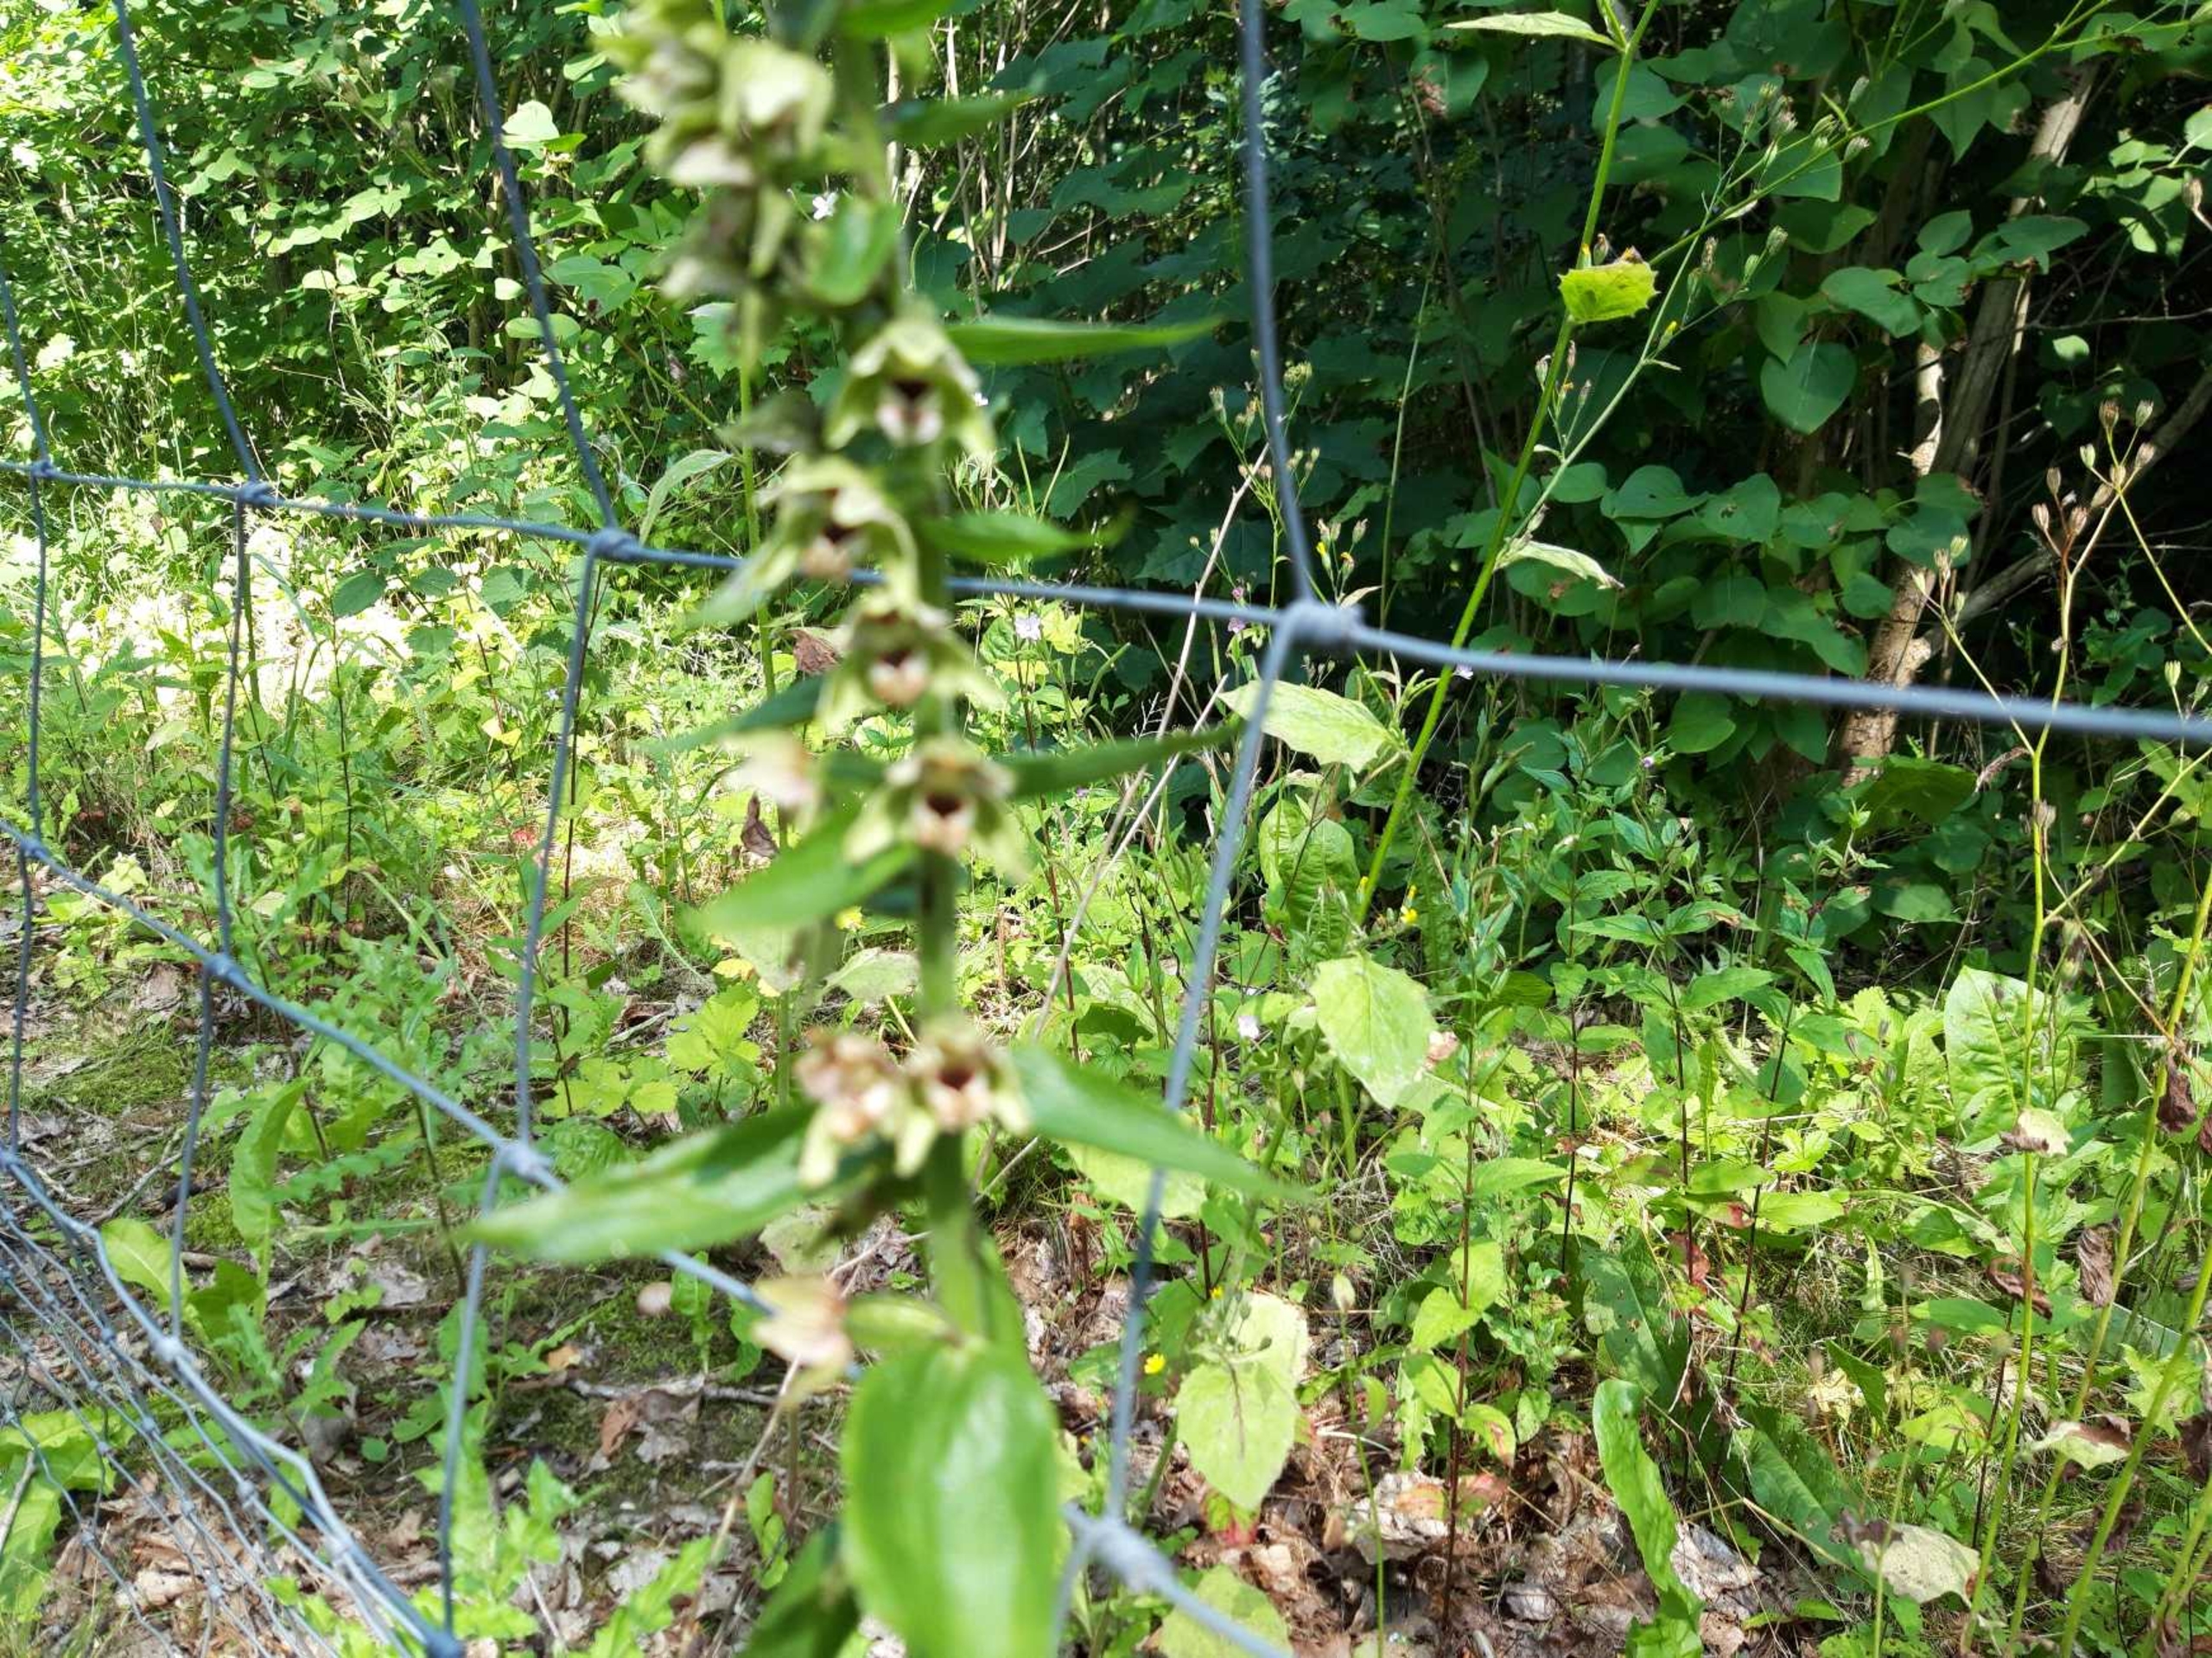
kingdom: Plantae
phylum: Tracheophyta
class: Liliopsida
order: Asparagales
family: Orchidaceae
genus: Epipactis
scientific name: Epipactis helleborine
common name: Skov-hullæbe
